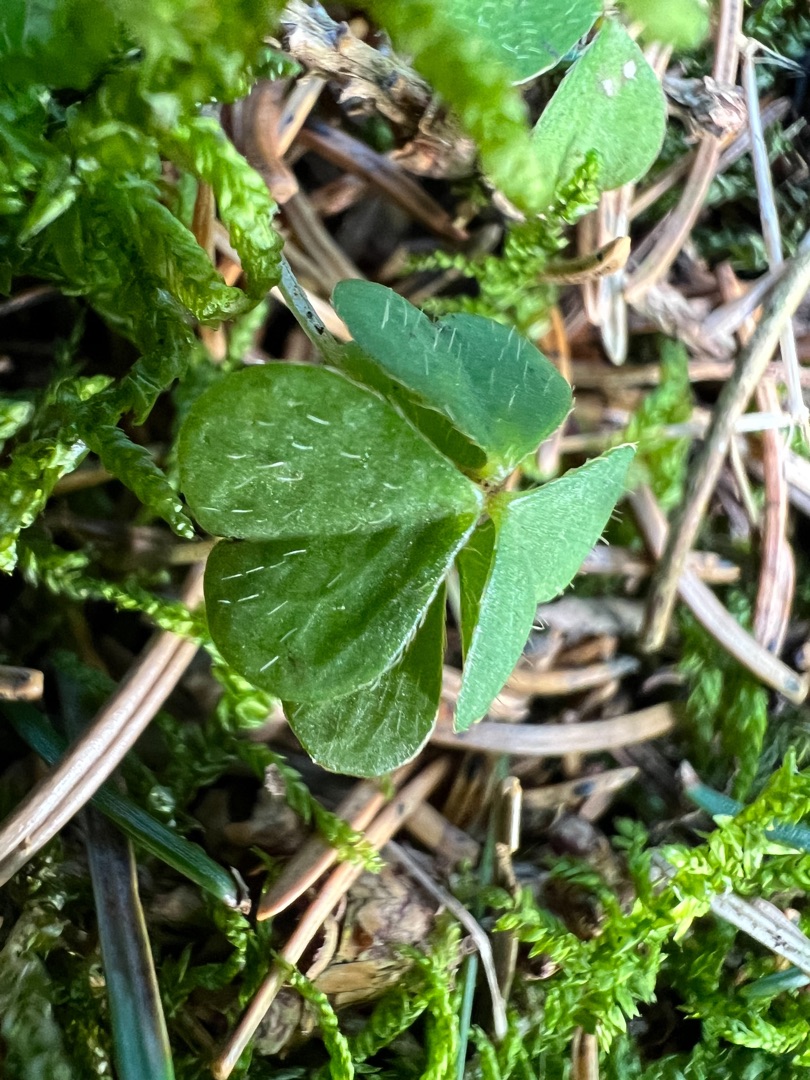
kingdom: Plantae
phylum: Tracheophyta
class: Magnoliopsida
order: Oxalidales
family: Oxalidaceae
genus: Oxalis
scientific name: Oxalis acetosella
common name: Skovsyre
